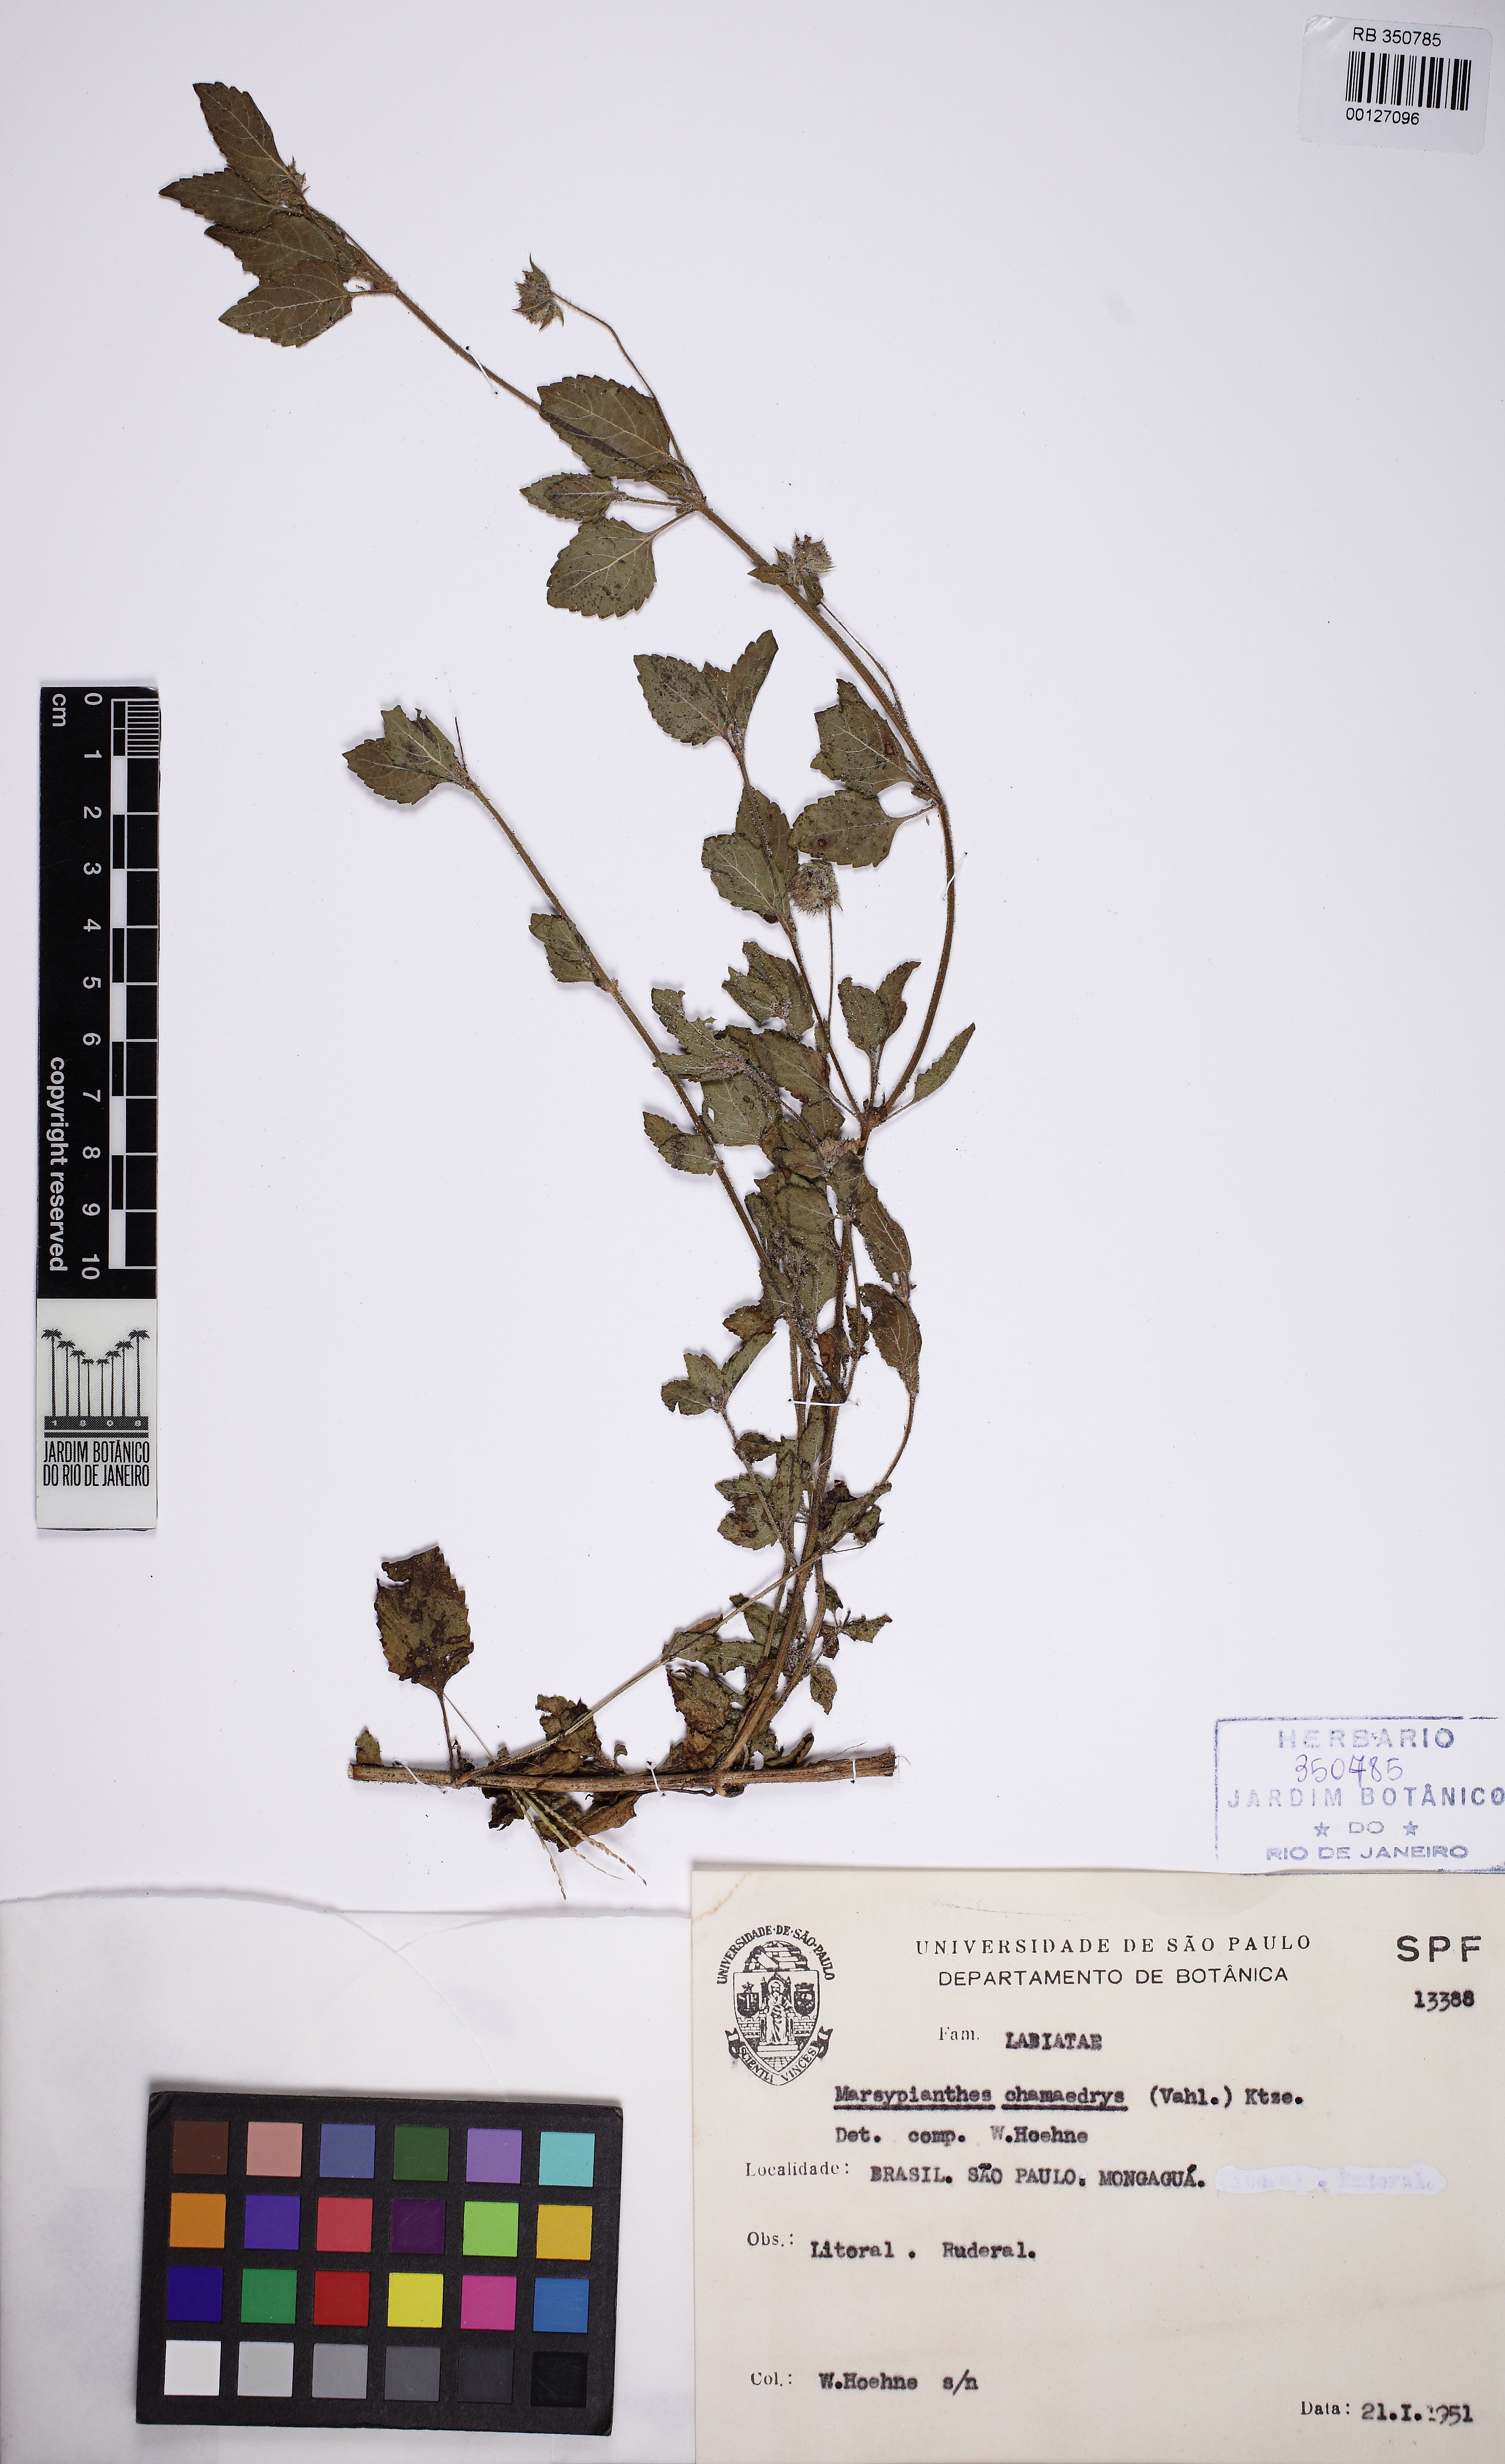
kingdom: Plantae
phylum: Tracheophyta
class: Magnoliopsida
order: Lamiales
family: Lamiaceae
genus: Marsypianthes
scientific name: Marsypianthes chamaedrys
